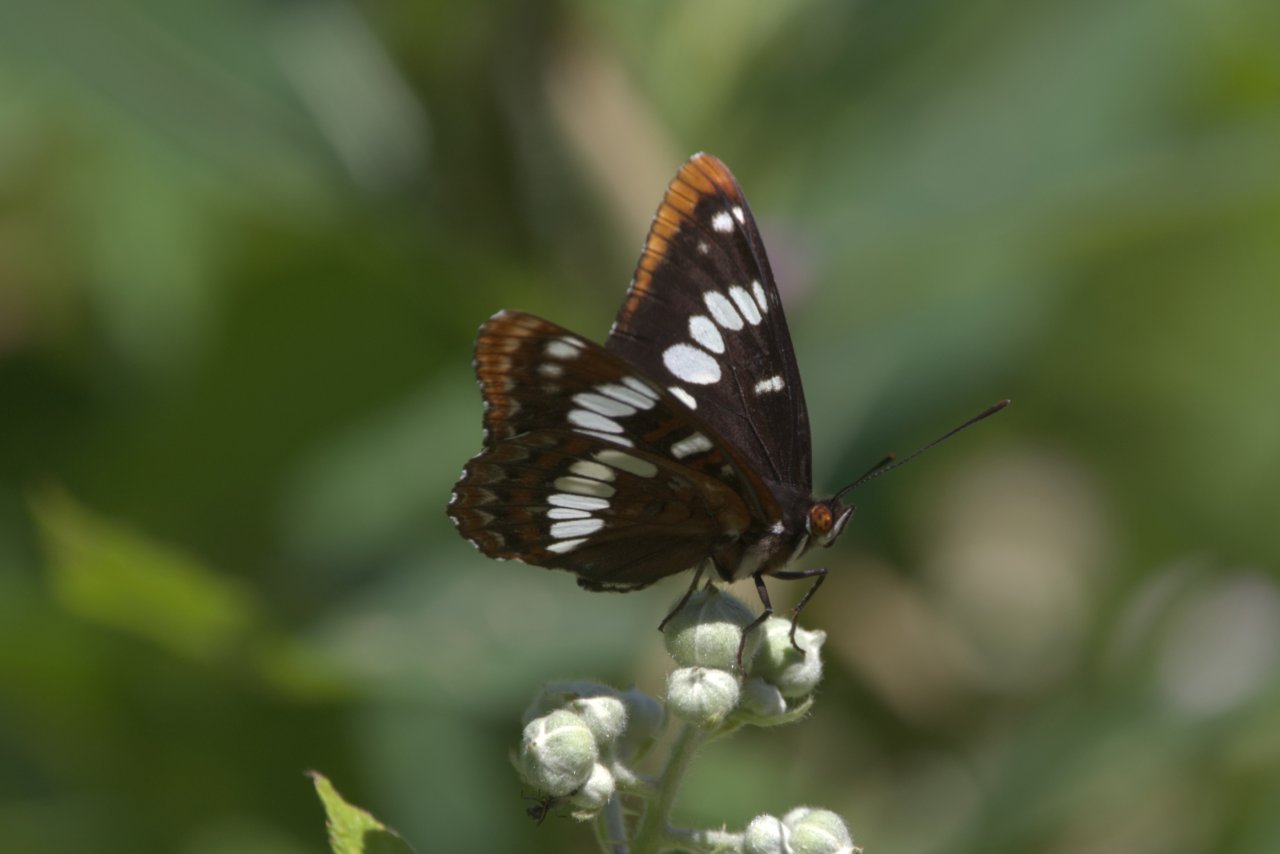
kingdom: Animalia
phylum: Arthropoda
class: Insecta
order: Lepidoptera
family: Nymphalidae
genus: Limenitis
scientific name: Limenitis lorquini
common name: Lorquin's Admiral
